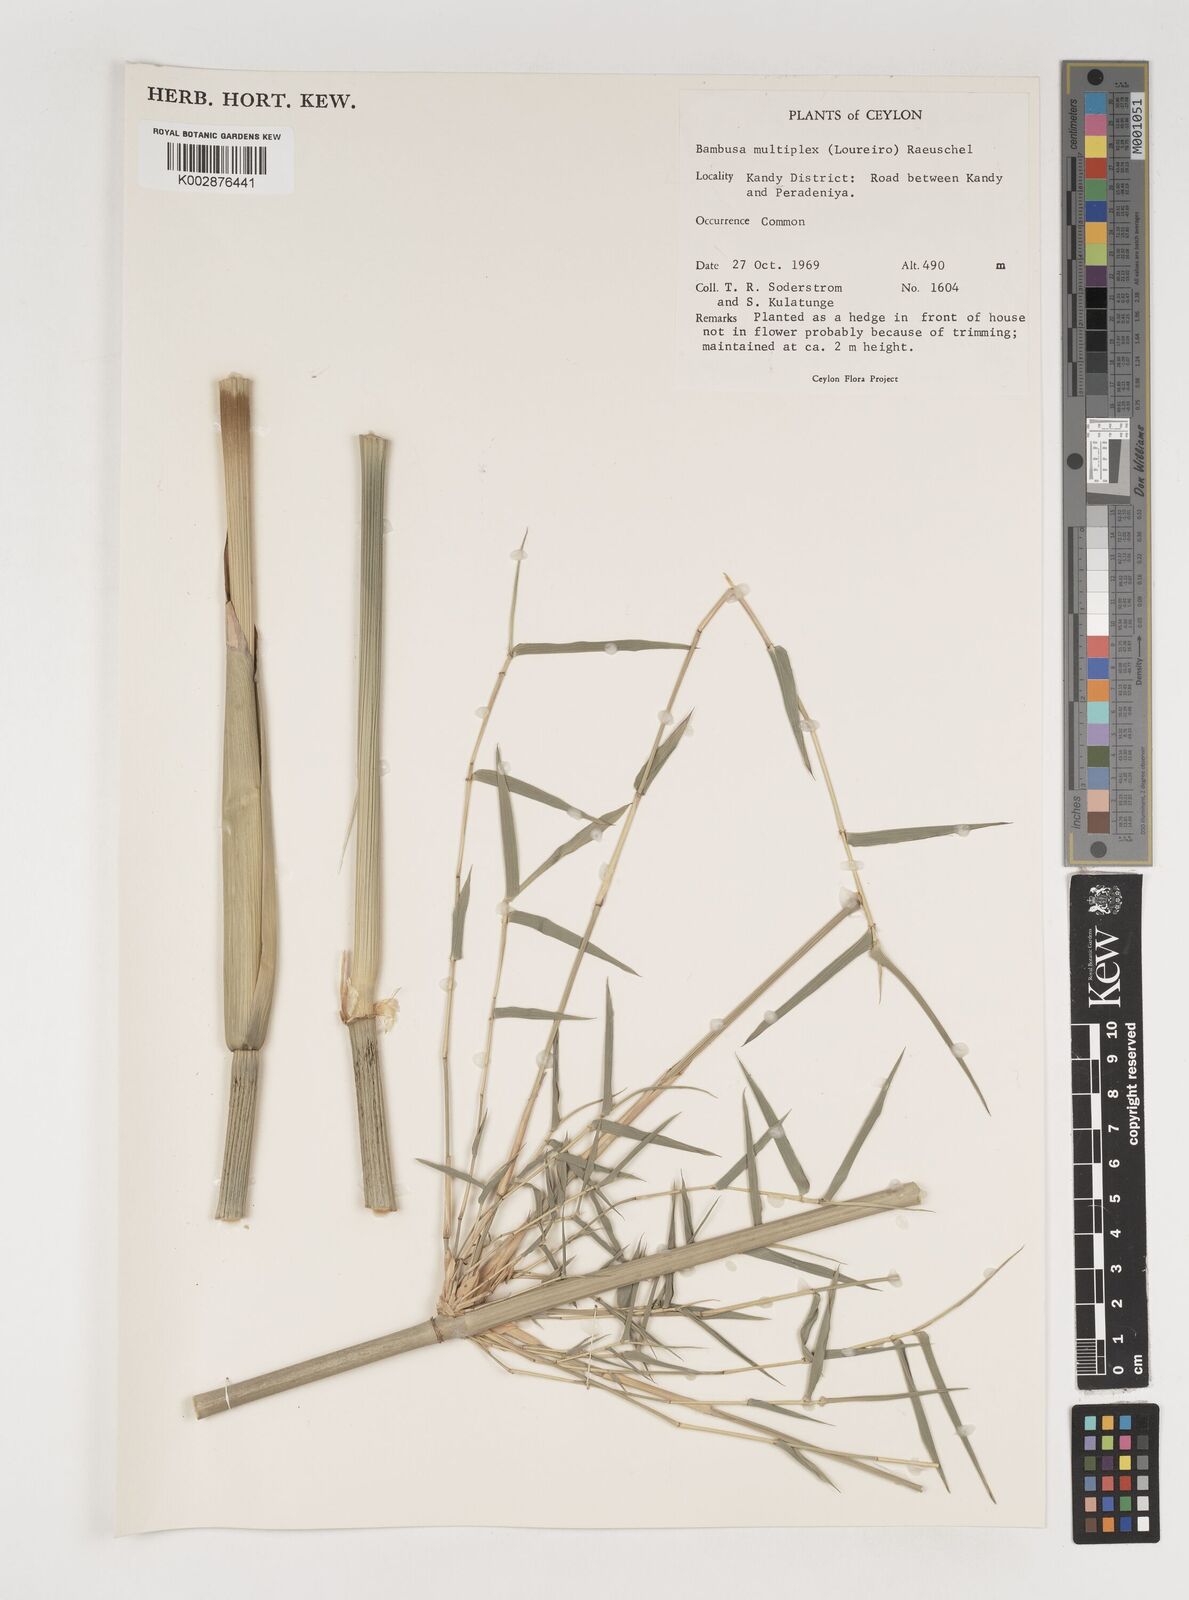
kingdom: Plantae
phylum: Tracheophyta
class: Liliopsida
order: Poales
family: Poaceae
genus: Bambusa
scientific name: Bambusa multiplex
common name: Hedge bamboo
